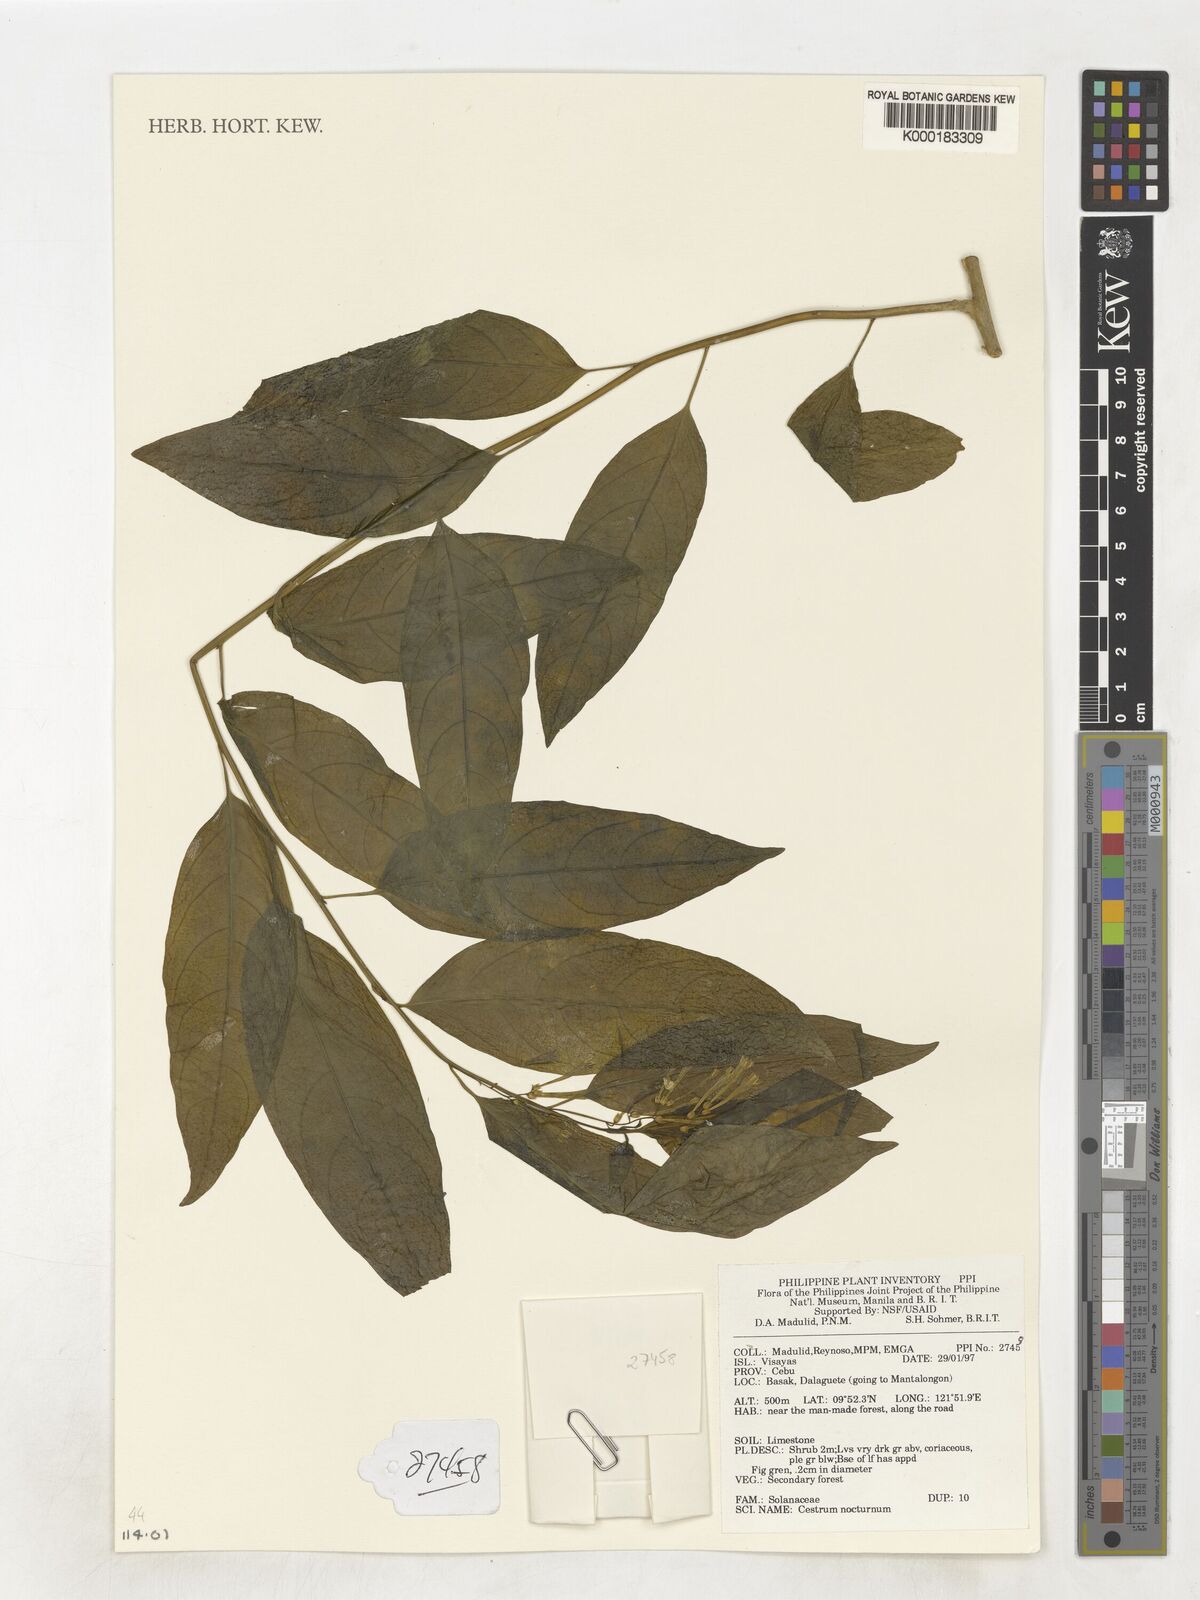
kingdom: Plantae
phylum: Tracheophyta
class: Magnoliopsida
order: Solanales
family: Solanaceae
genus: Cestrum
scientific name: Cestrum nocturnum
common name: Night jessamine
